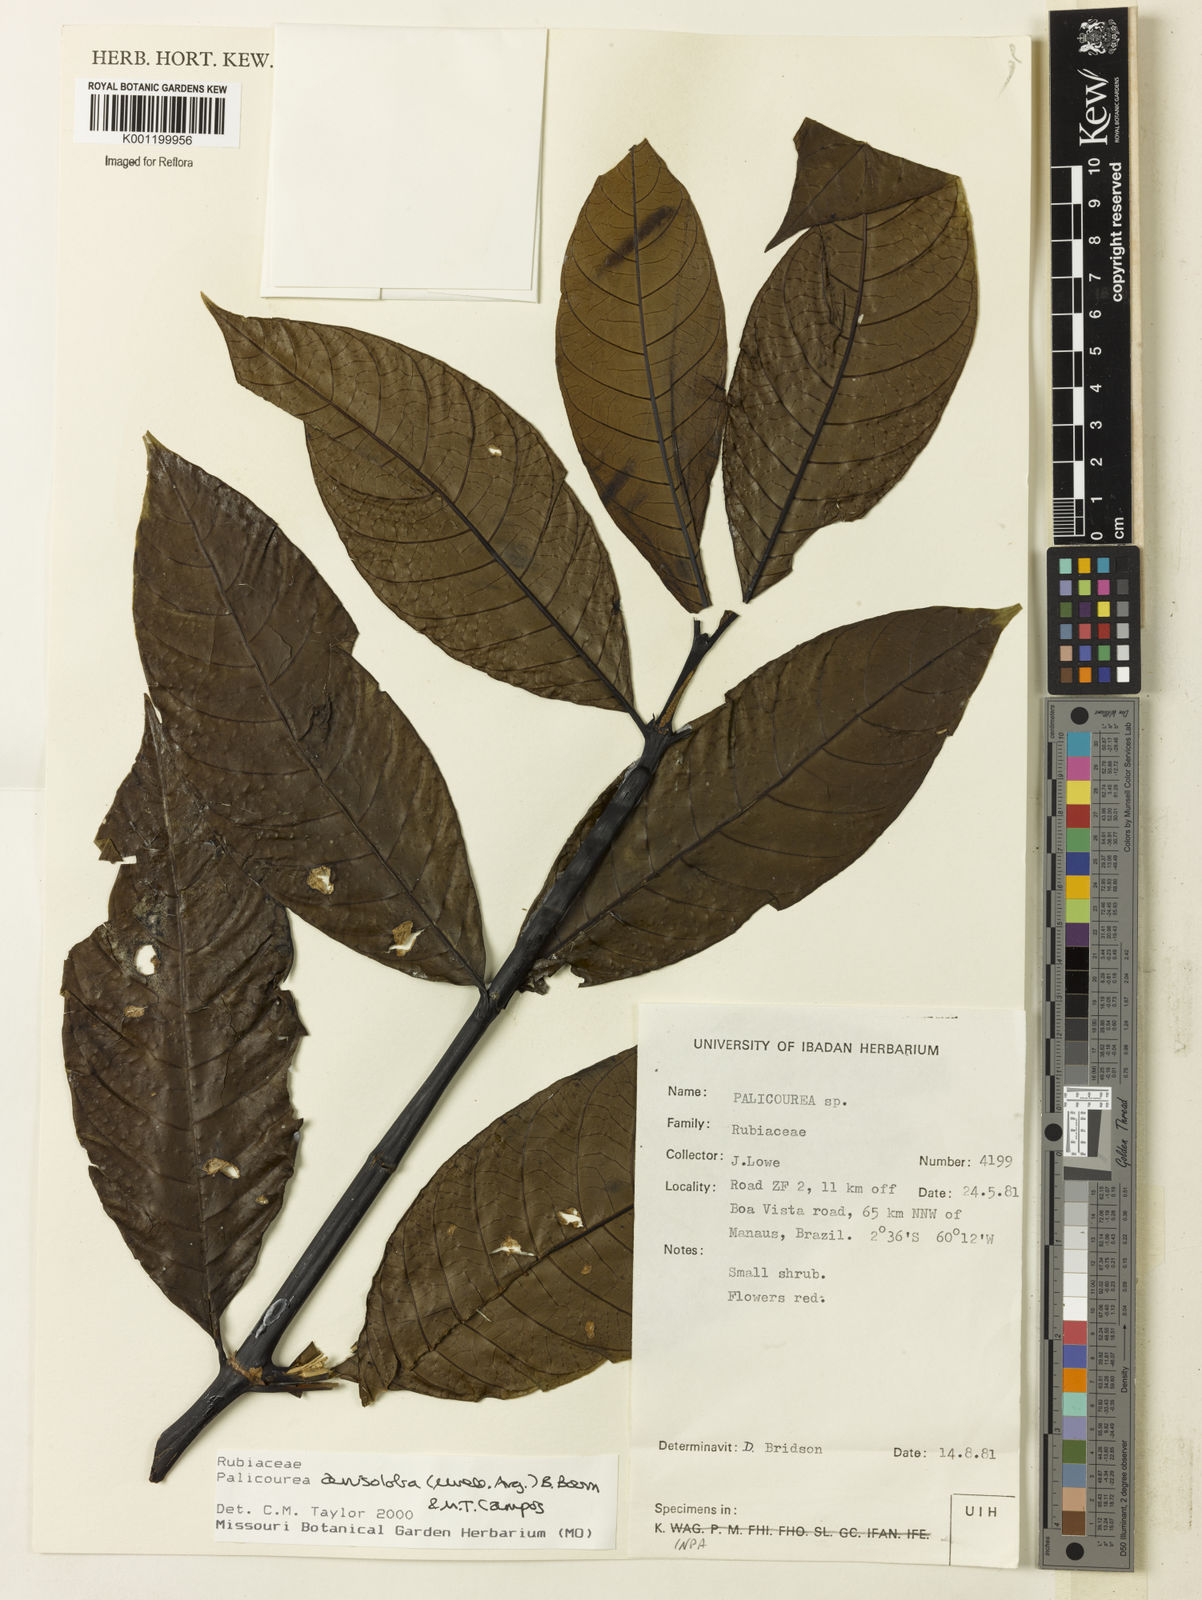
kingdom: Plantae
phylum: Tracheophyta
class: Magnoliopsida
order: Gentianales
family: Rubiaceae
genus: Palicourea
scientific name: Palicourea
